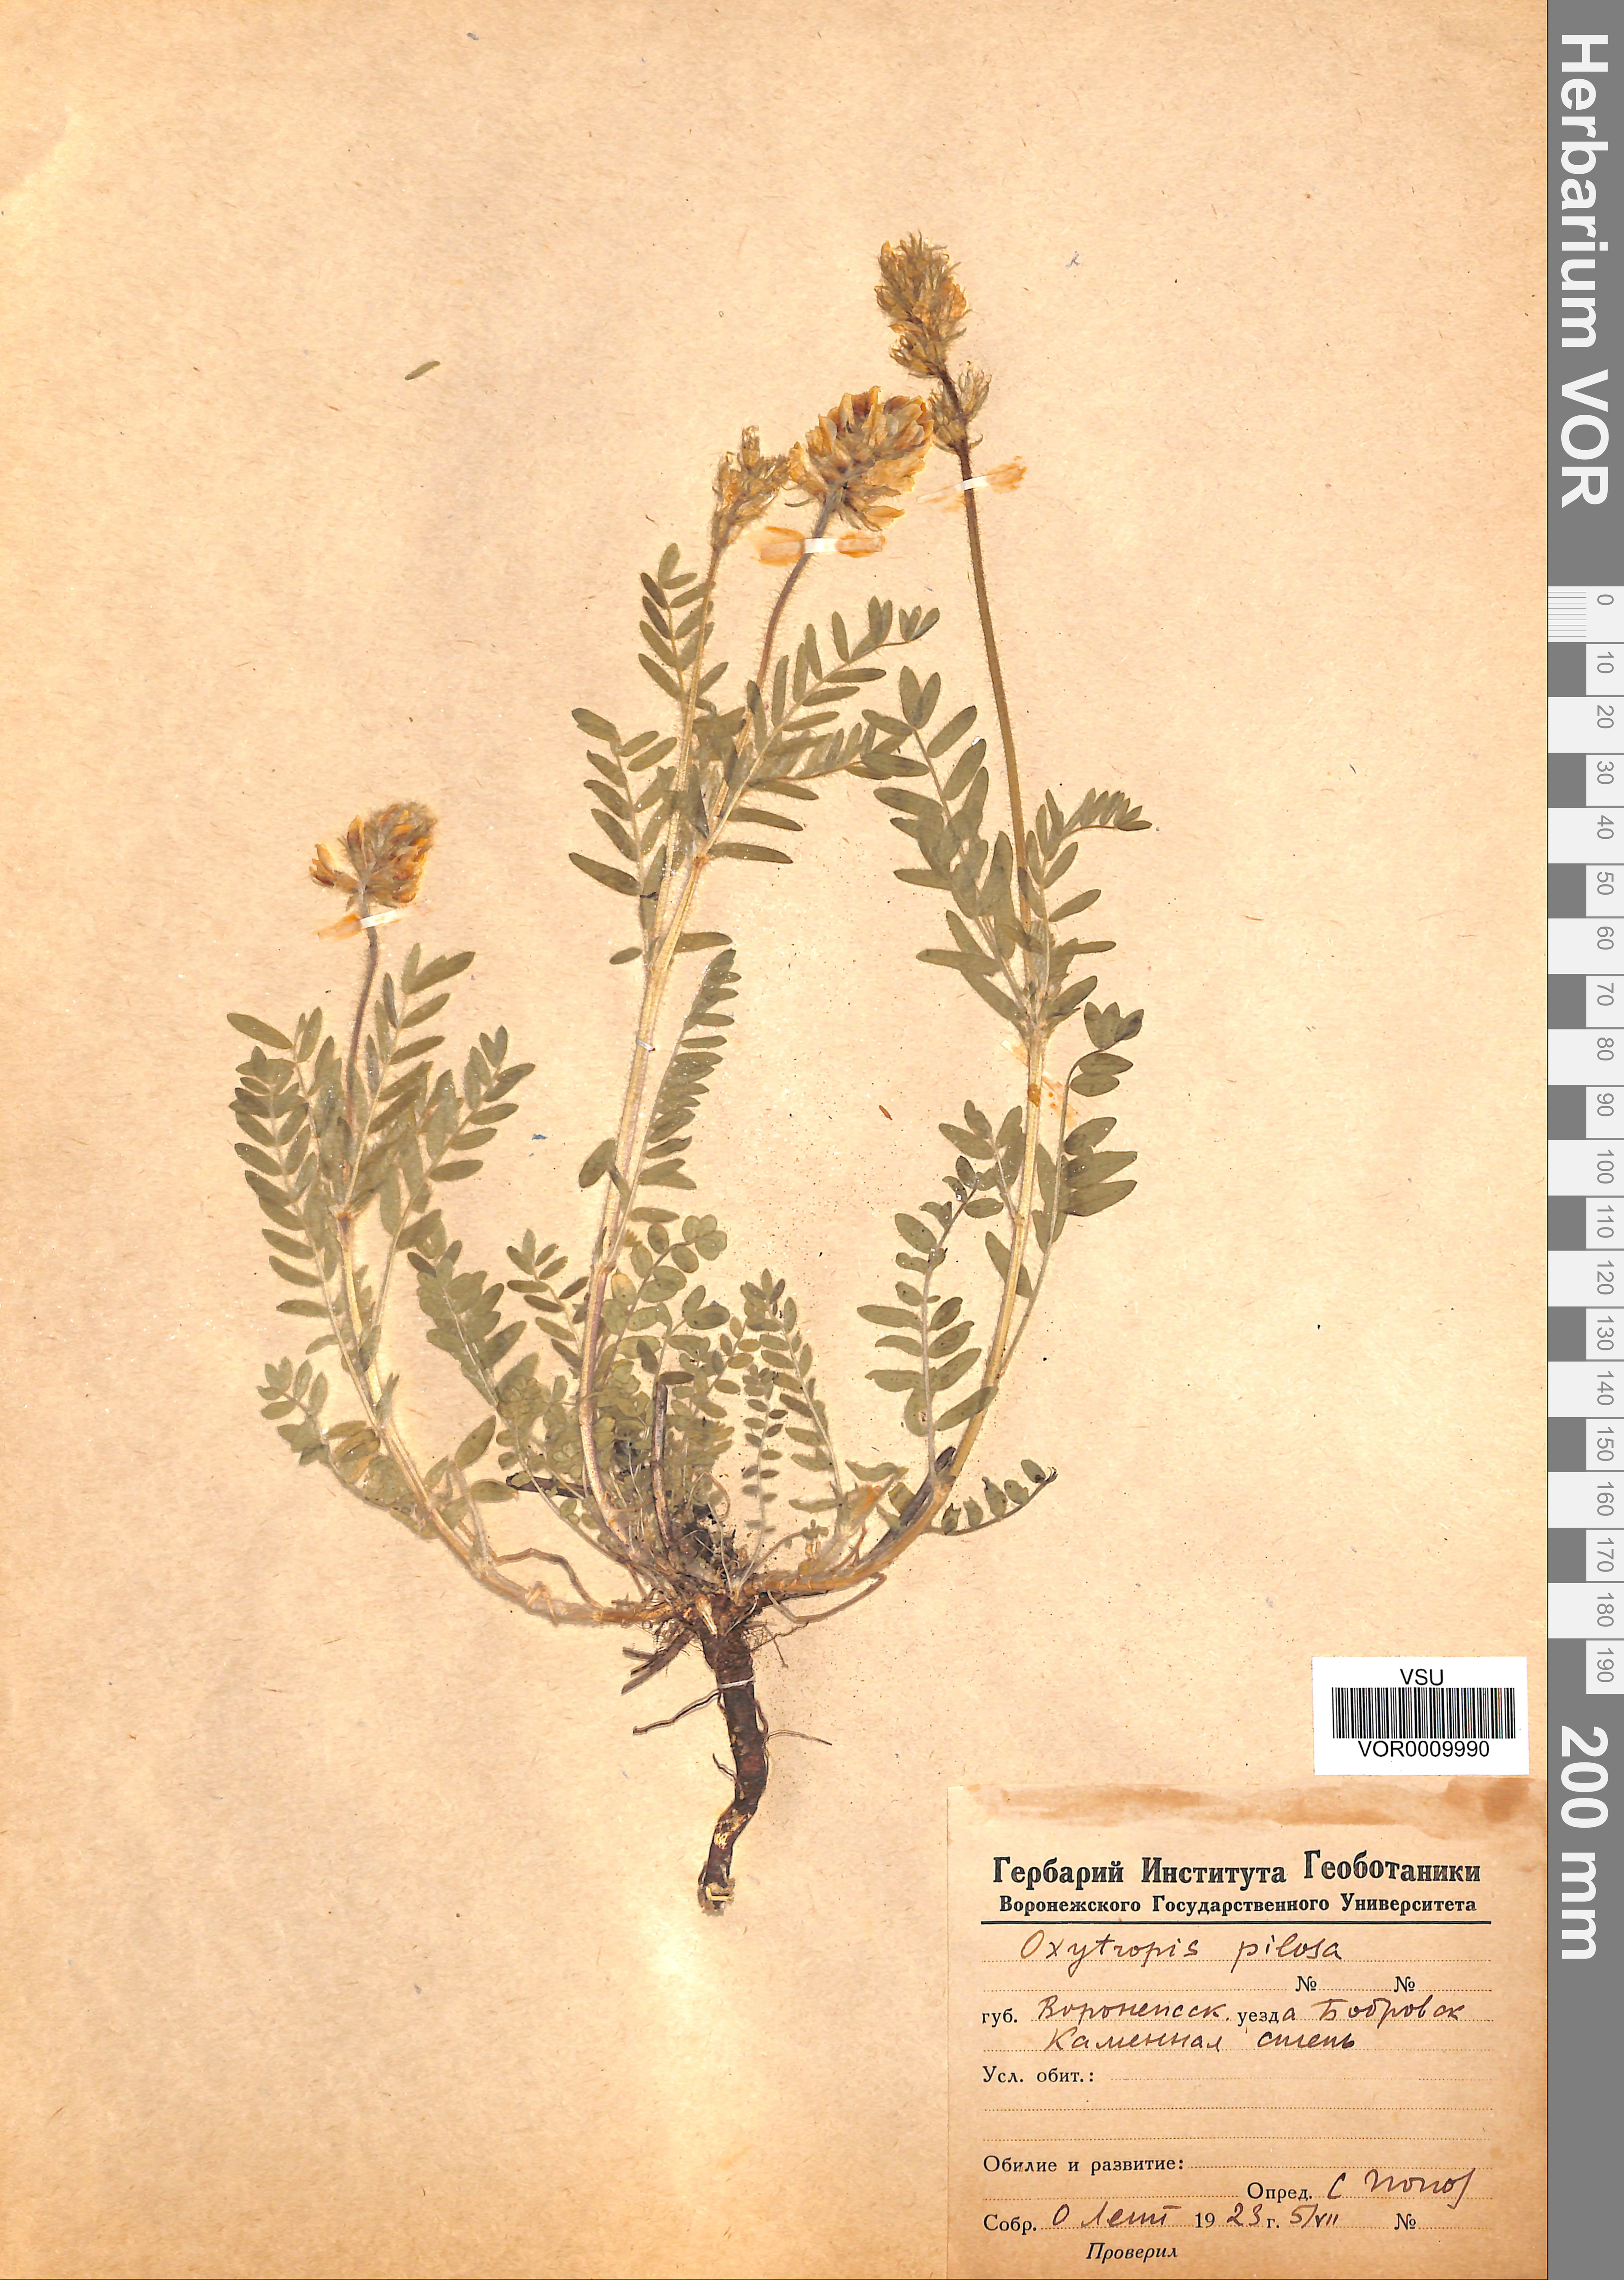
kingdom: Plantae
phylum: Tracheophyta
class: Magnoliopsida
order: Fabales
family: Fabaceae
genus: Oxytropis
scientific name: Oxytropis pilosa
